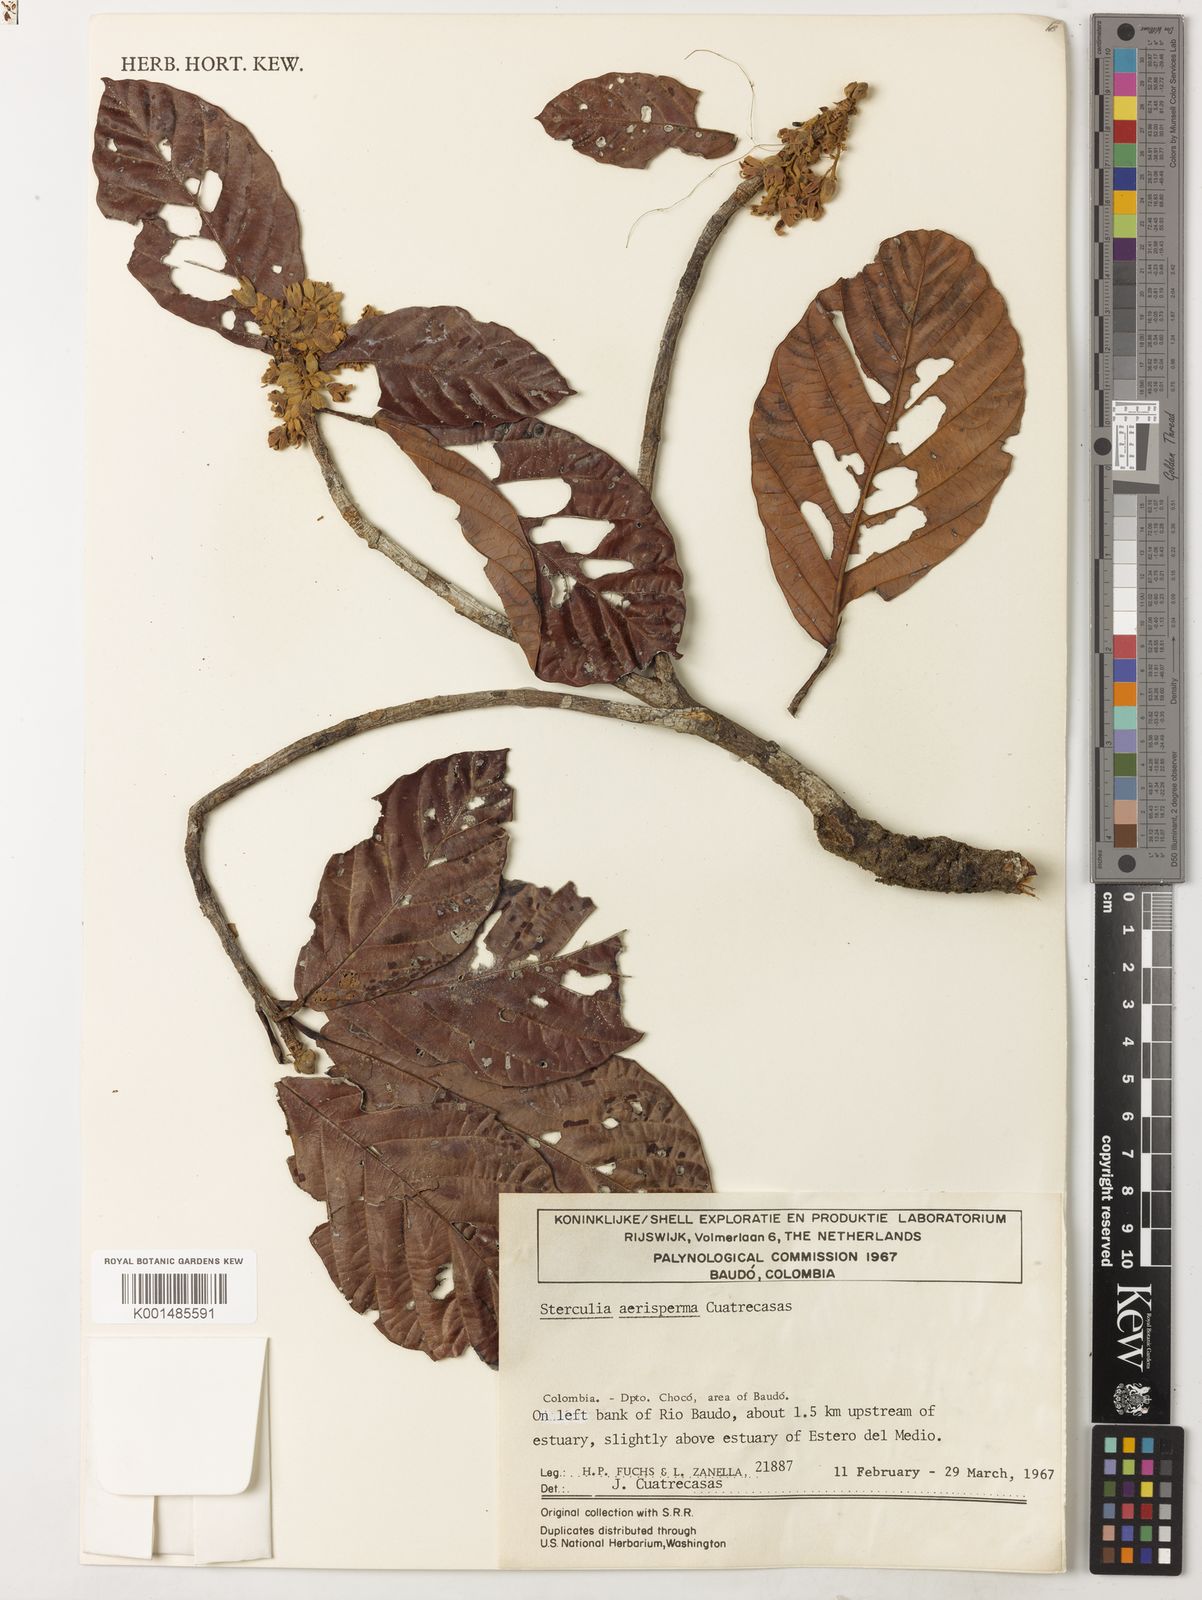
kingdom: Plantae
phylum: Tracheophyta
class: Magnoliopsida
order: Malvales
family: Malvaceae
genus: Sterculia
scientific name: Sterculia aerisperma
